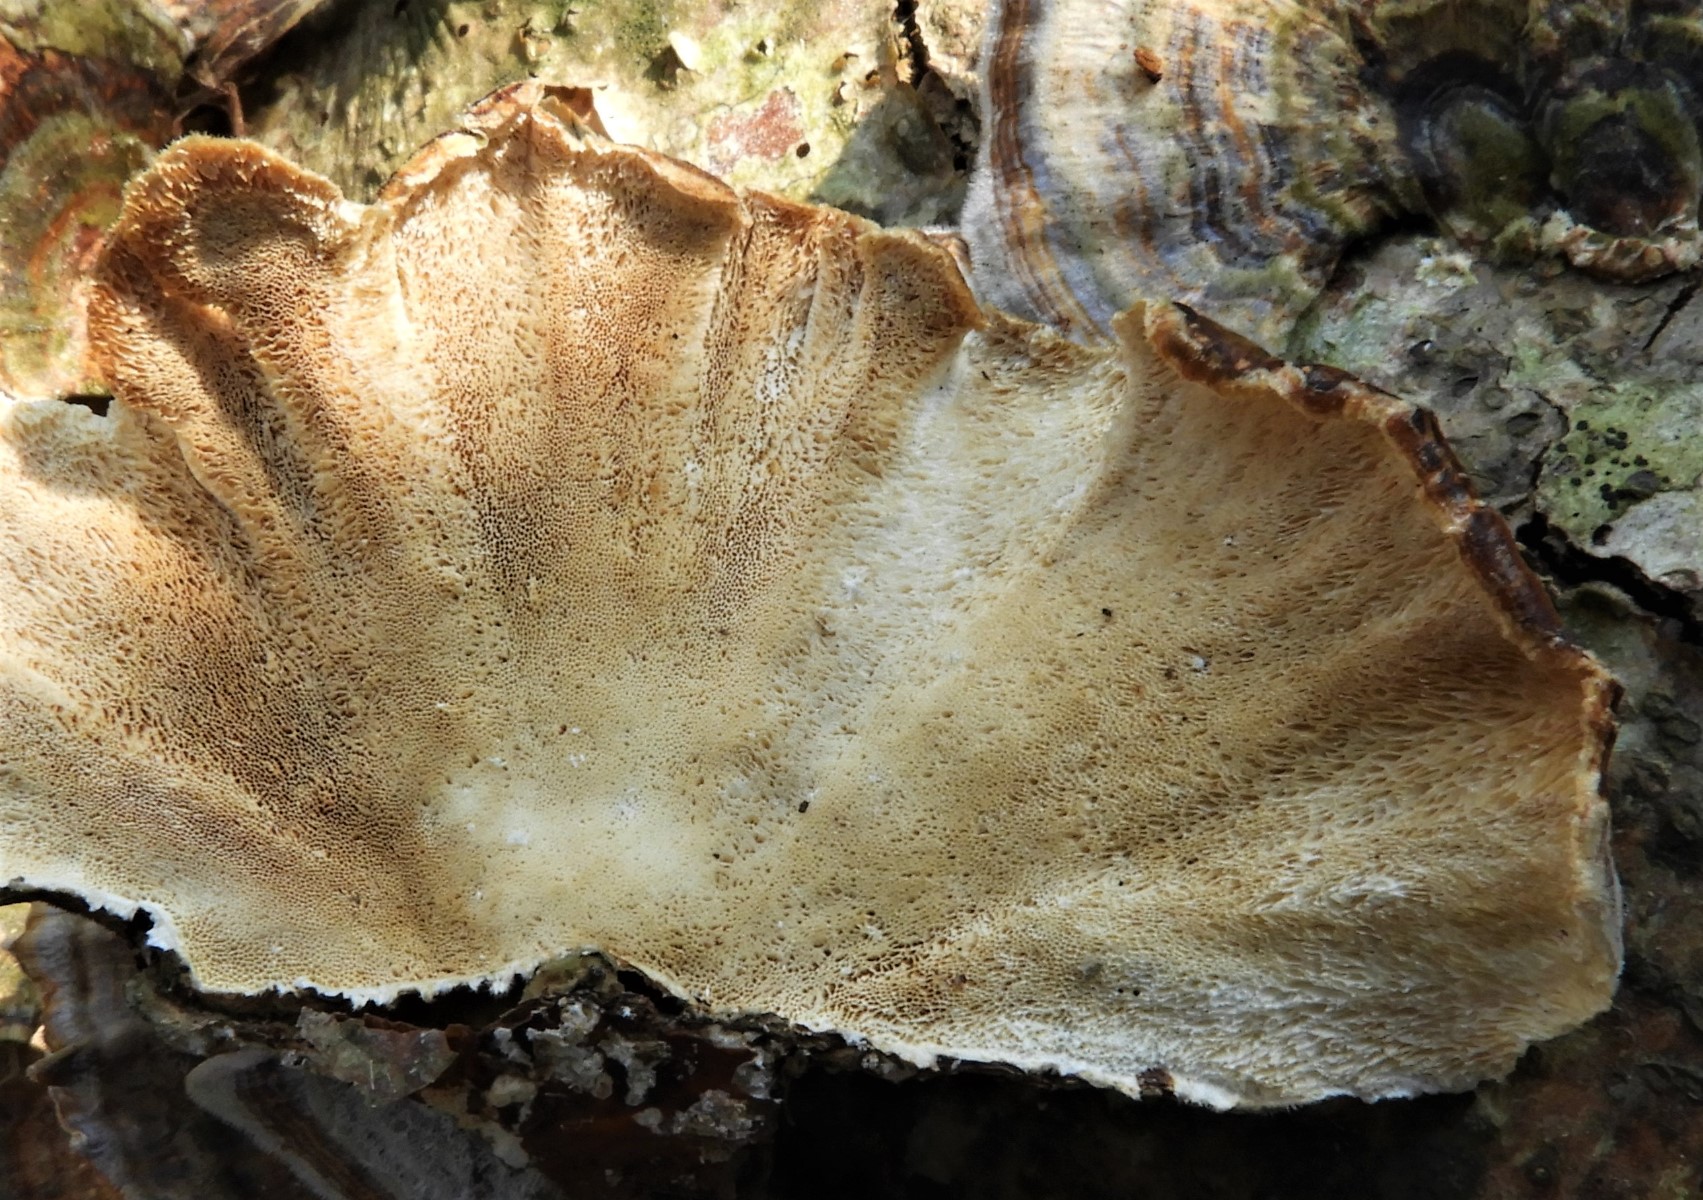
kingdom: Fungi
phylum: Basidiomycota
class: Agaricomycetes
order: Polyporales
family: Polyporaceae
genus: Trametes
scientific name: Trametes versicolor
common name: broget læderporesvamp
